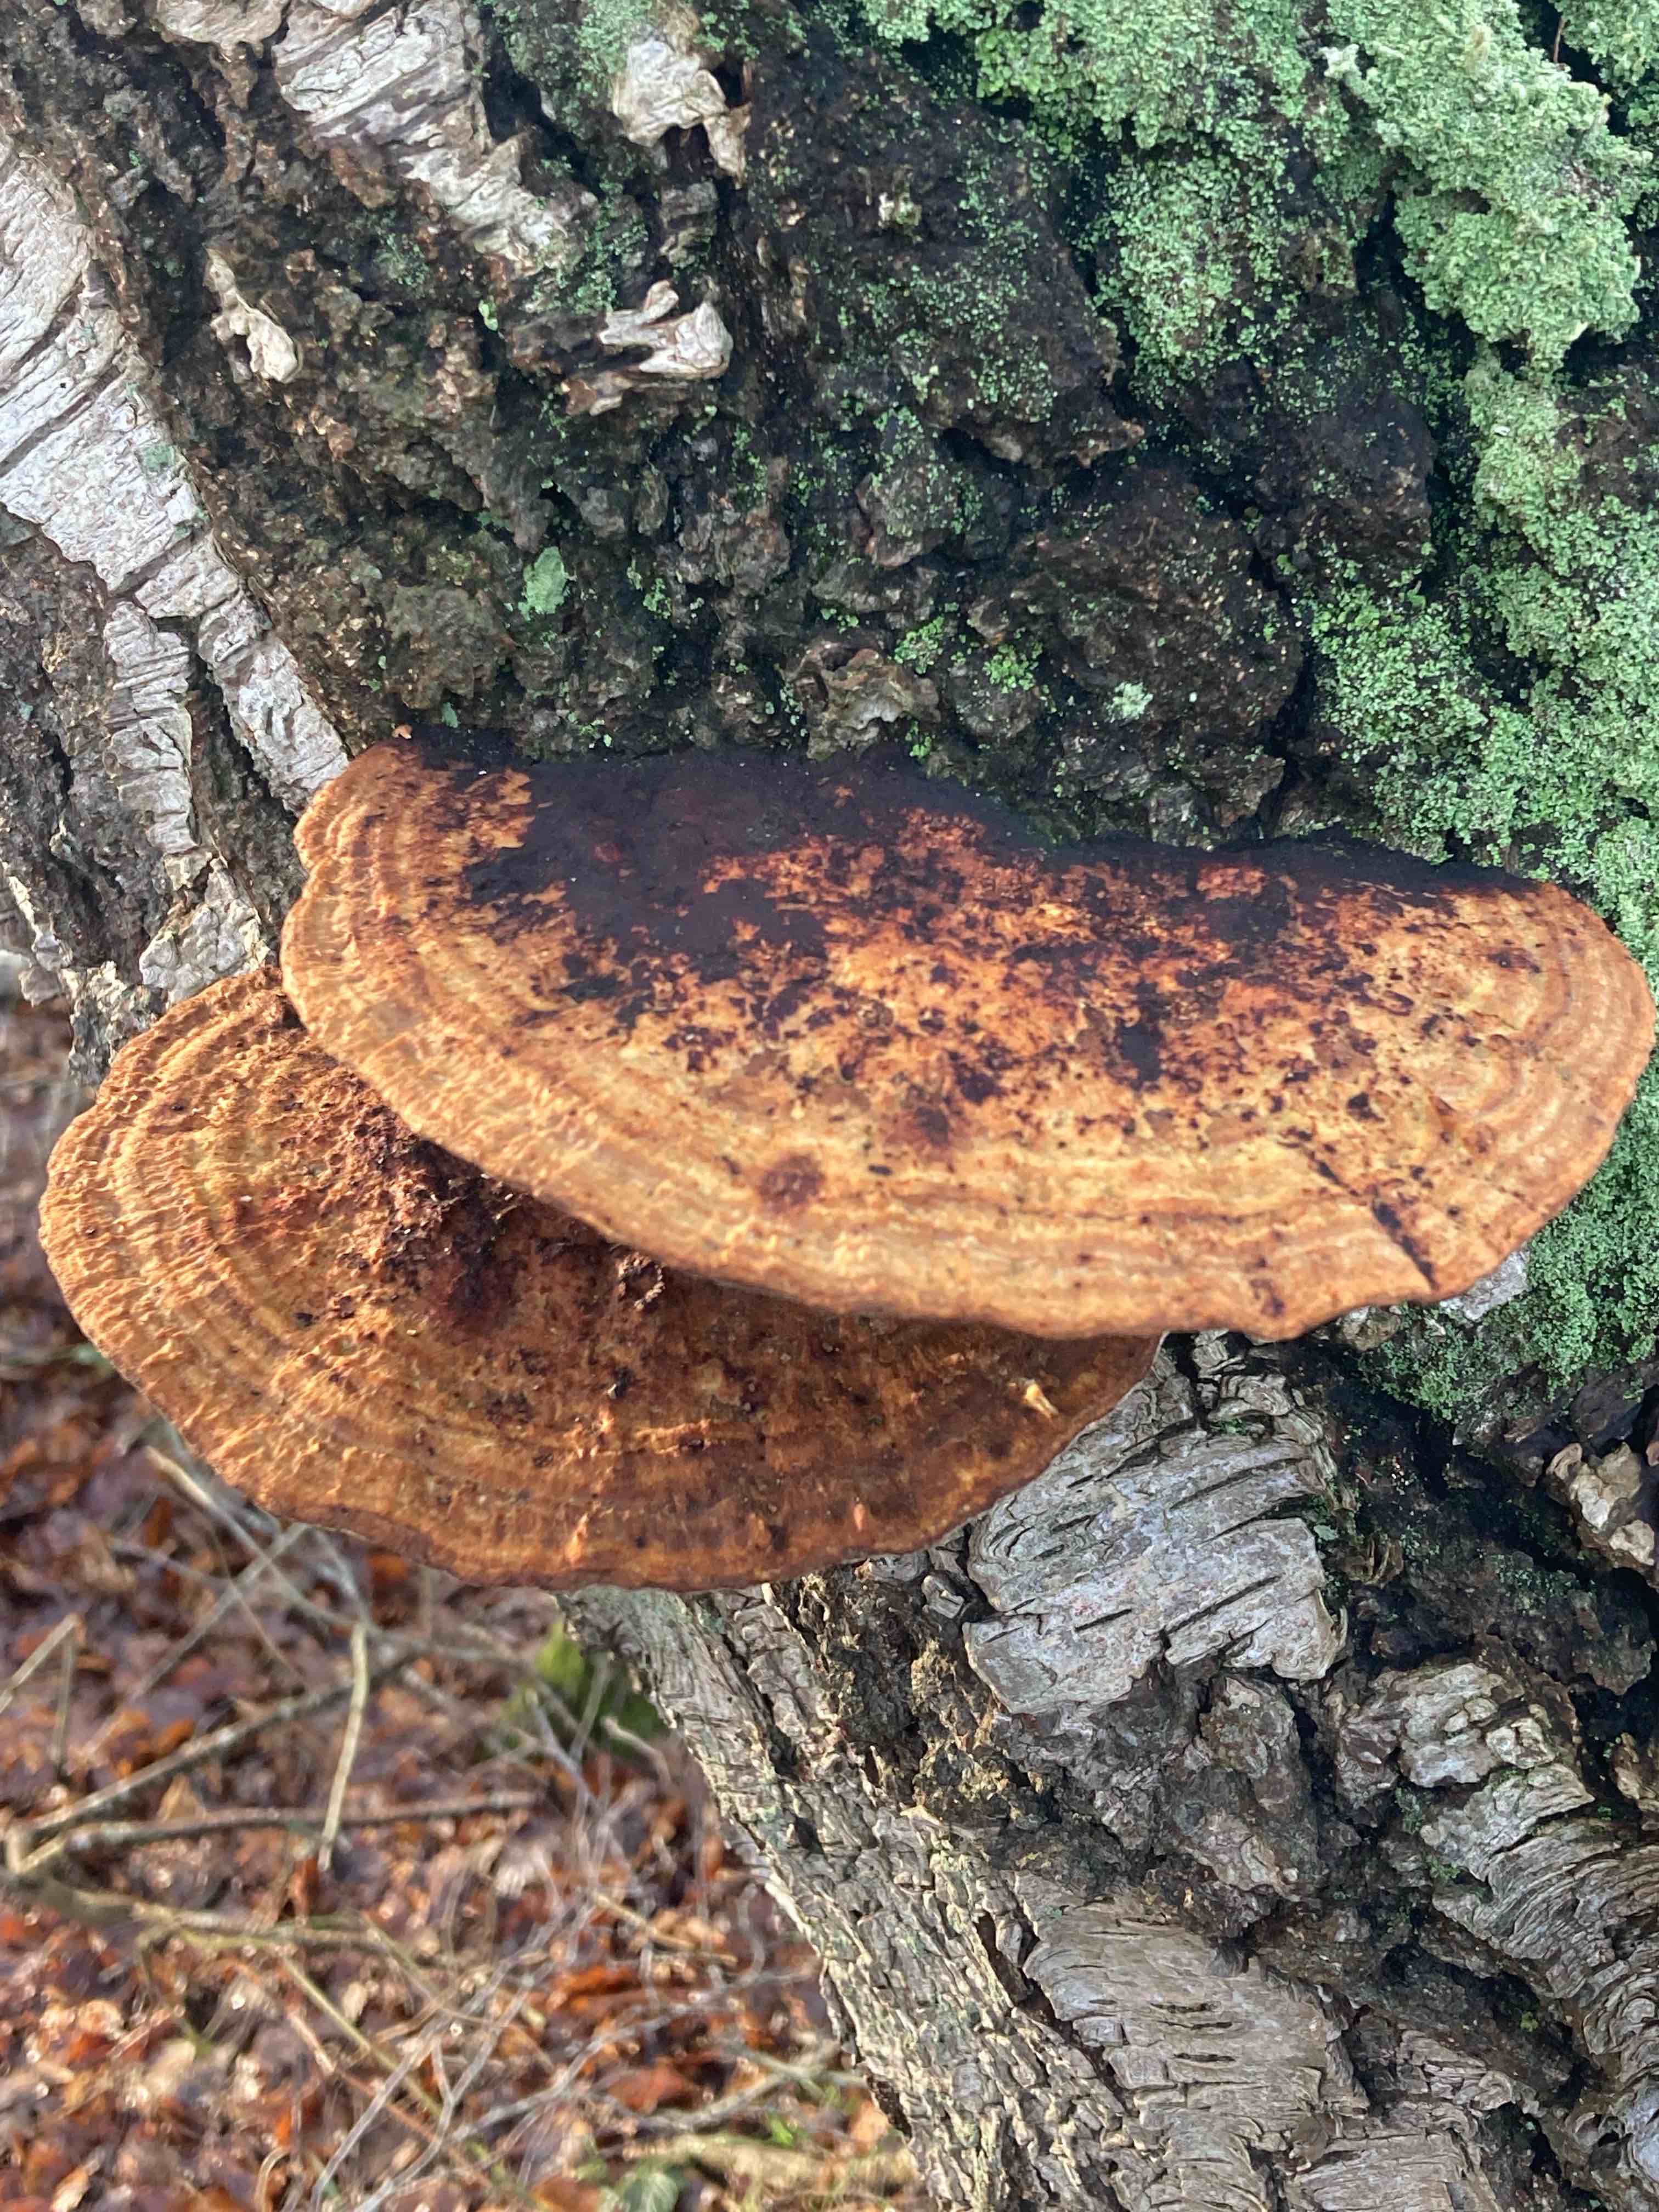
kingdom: Fungi
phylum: Basidiomycota
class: Agaricomycetes
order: Polyporales
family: Polyporaceae
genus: Daedaleopsis
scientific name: Daedaleopsis confragosa
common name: rødmende læderporesvamp
